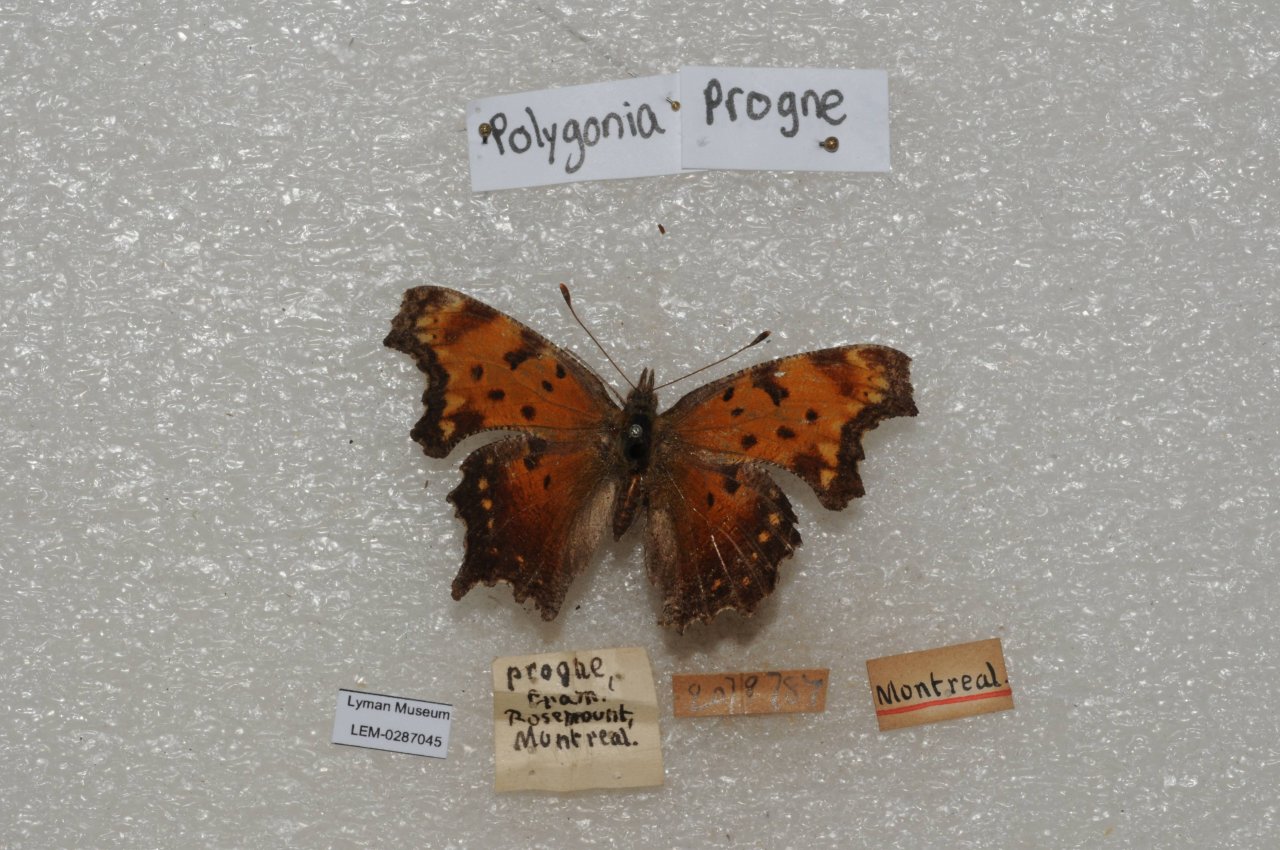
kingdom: Animalia
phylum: Arthropoda
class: Insecta
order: Lepidoptera
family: Nymphalidae
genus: Polygonia
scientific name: Polygonia progne
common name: Gray Comma
